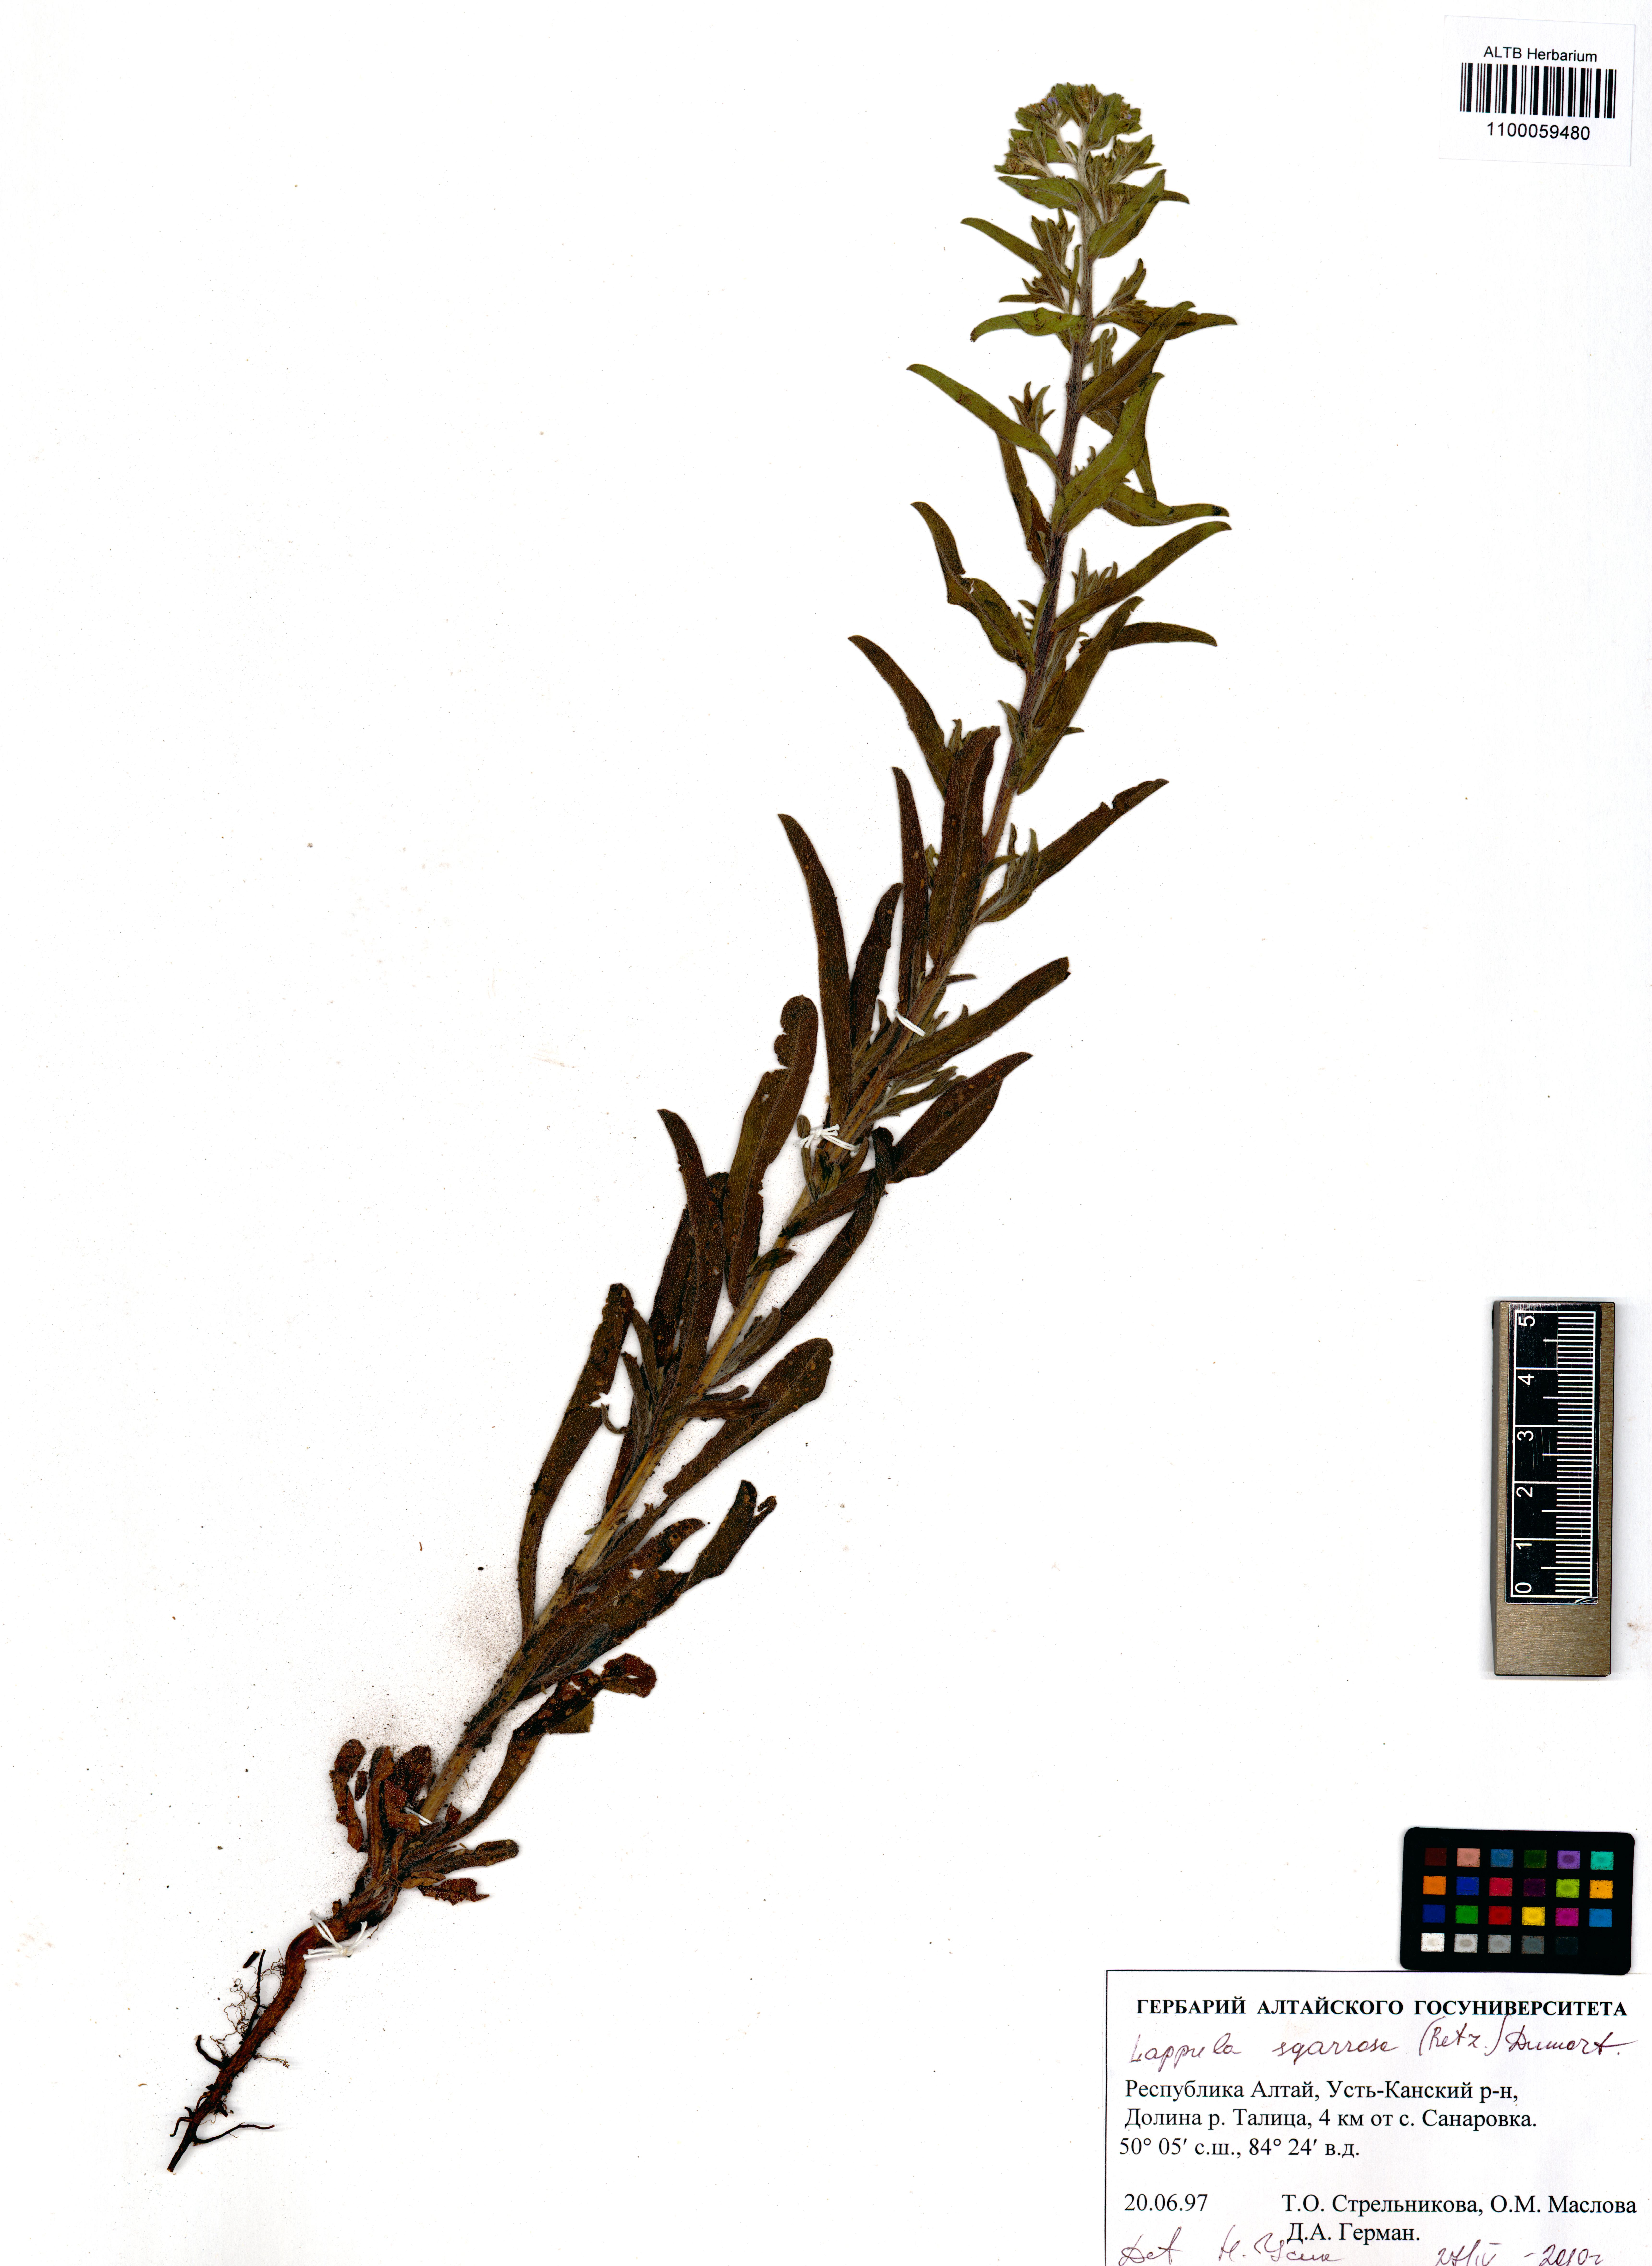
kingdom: Plantae
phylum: Tracheophyta
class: Magnoliopsida
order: Boraginales
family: Boraginaceae
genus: Lappula
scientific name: Lappula squarrosa
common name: European stickseed
